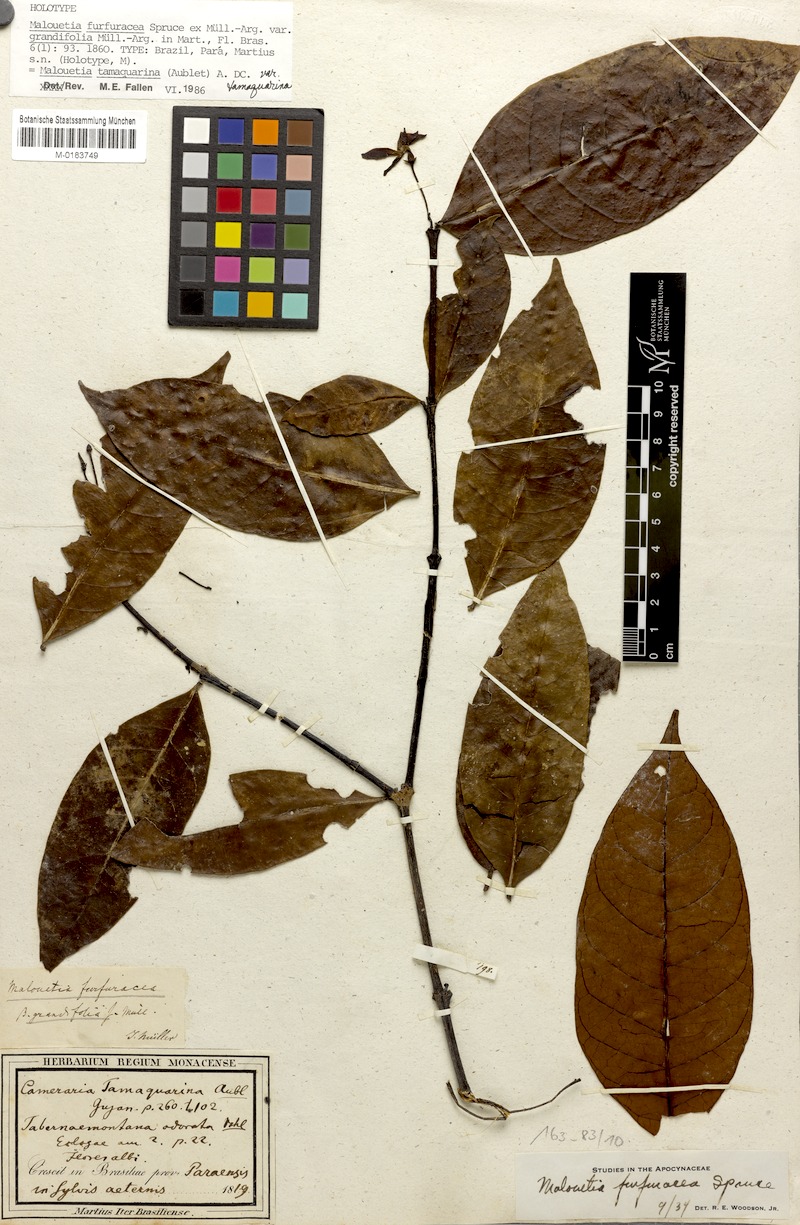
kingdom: Plantae
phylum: Tracheophyta
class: Magnoliopsida
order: Gentianales
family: Apocynaceae
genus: Malouetia
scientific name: Malouetia tamaquarina
